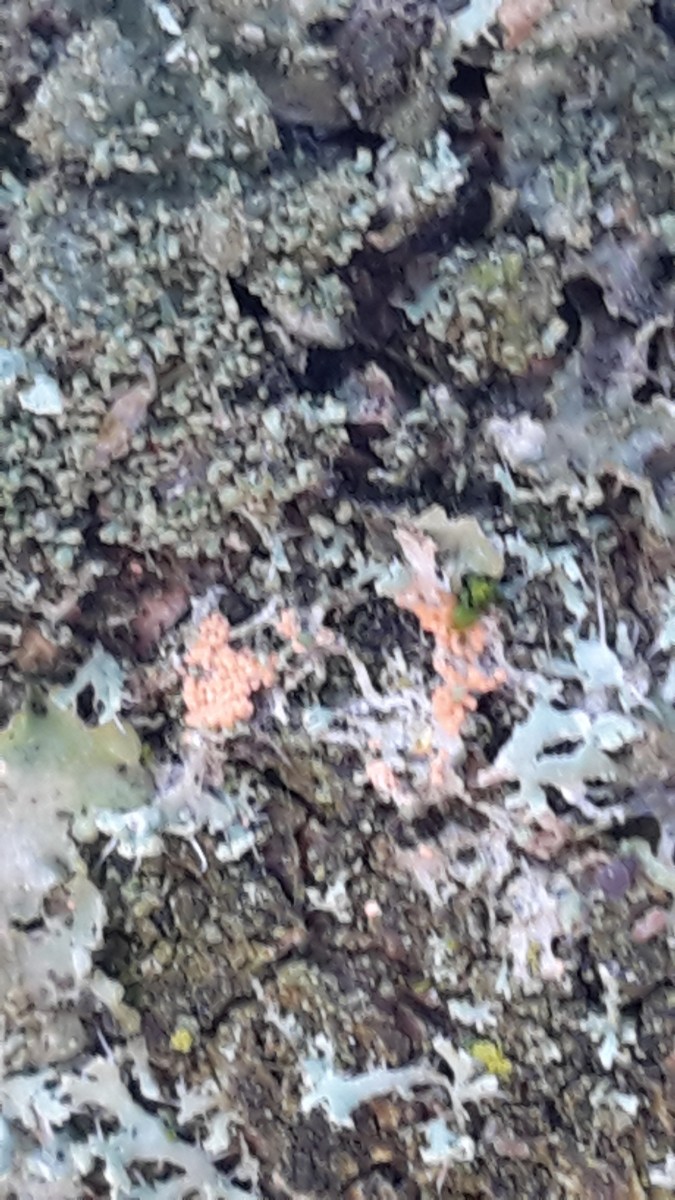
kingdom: Fungi
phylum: Basidiomycota
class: Agaricomycetes
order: Corticiales
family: Corticiaceae
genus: Erythricium
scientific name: Erythricium aurantiacum
